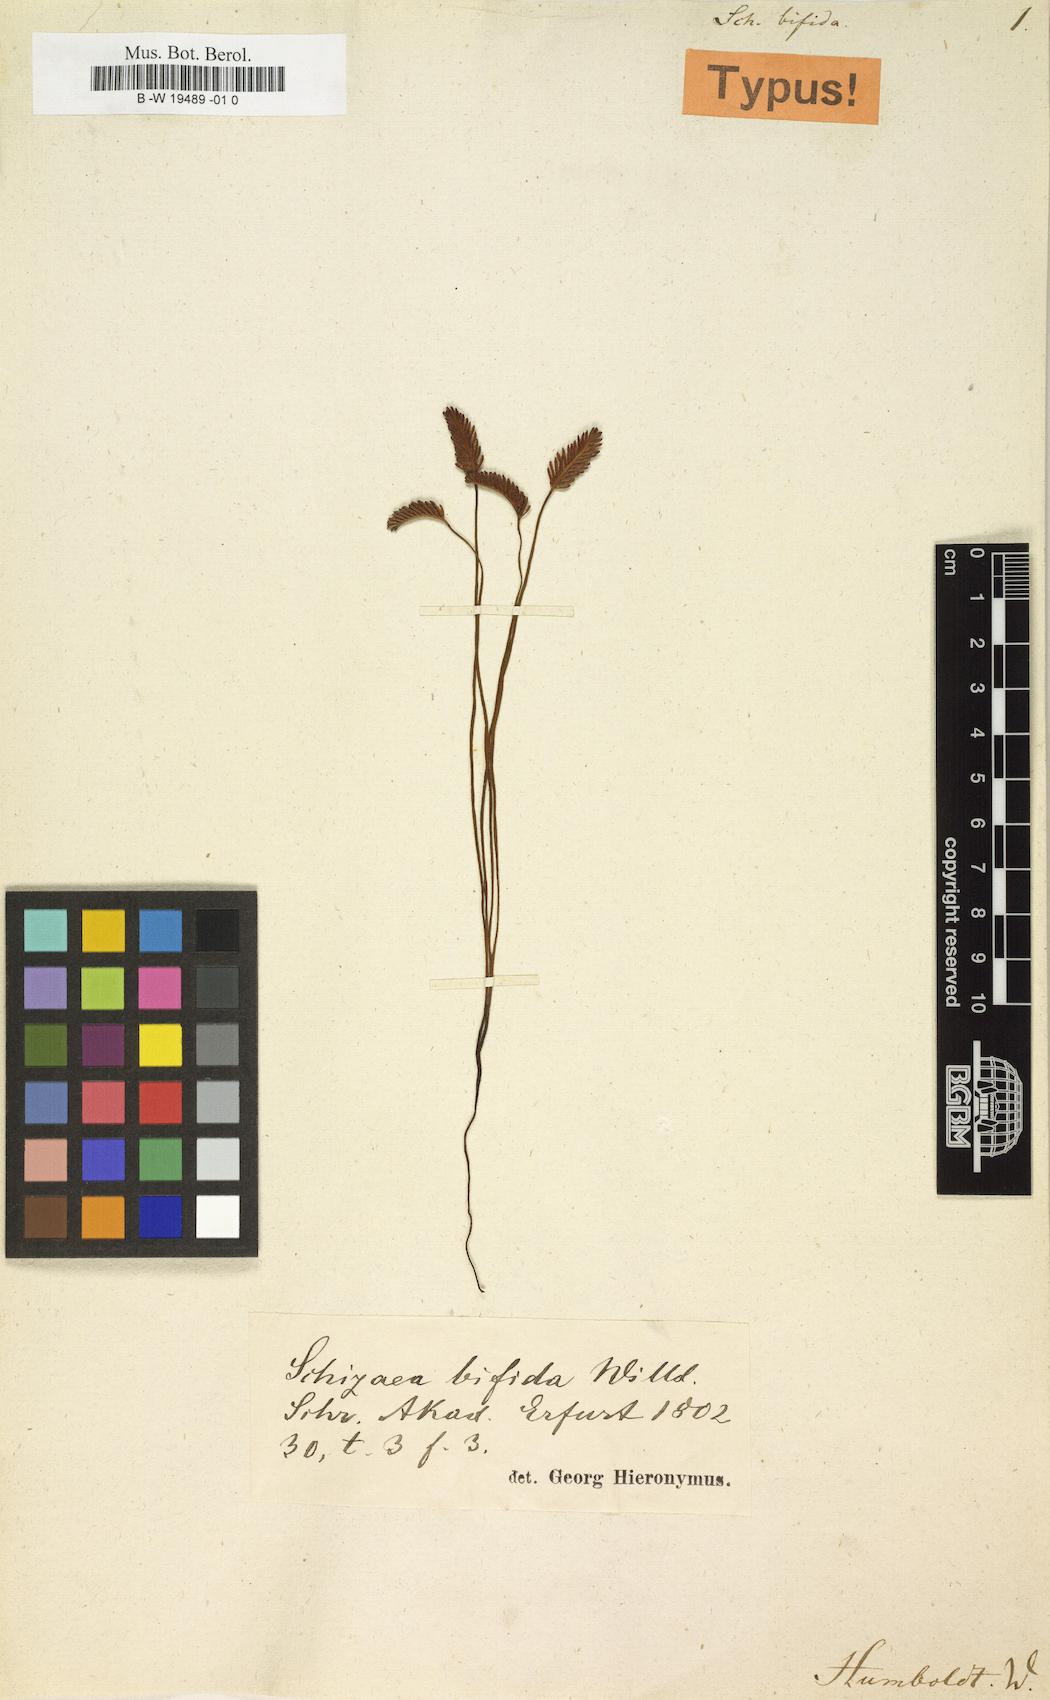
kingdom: Plantae
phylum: Tracheophyta
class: Polypodiopsida
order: Schizaeales
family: Schizaeaceae
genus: Schizaea
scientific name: Schizaea bifida
